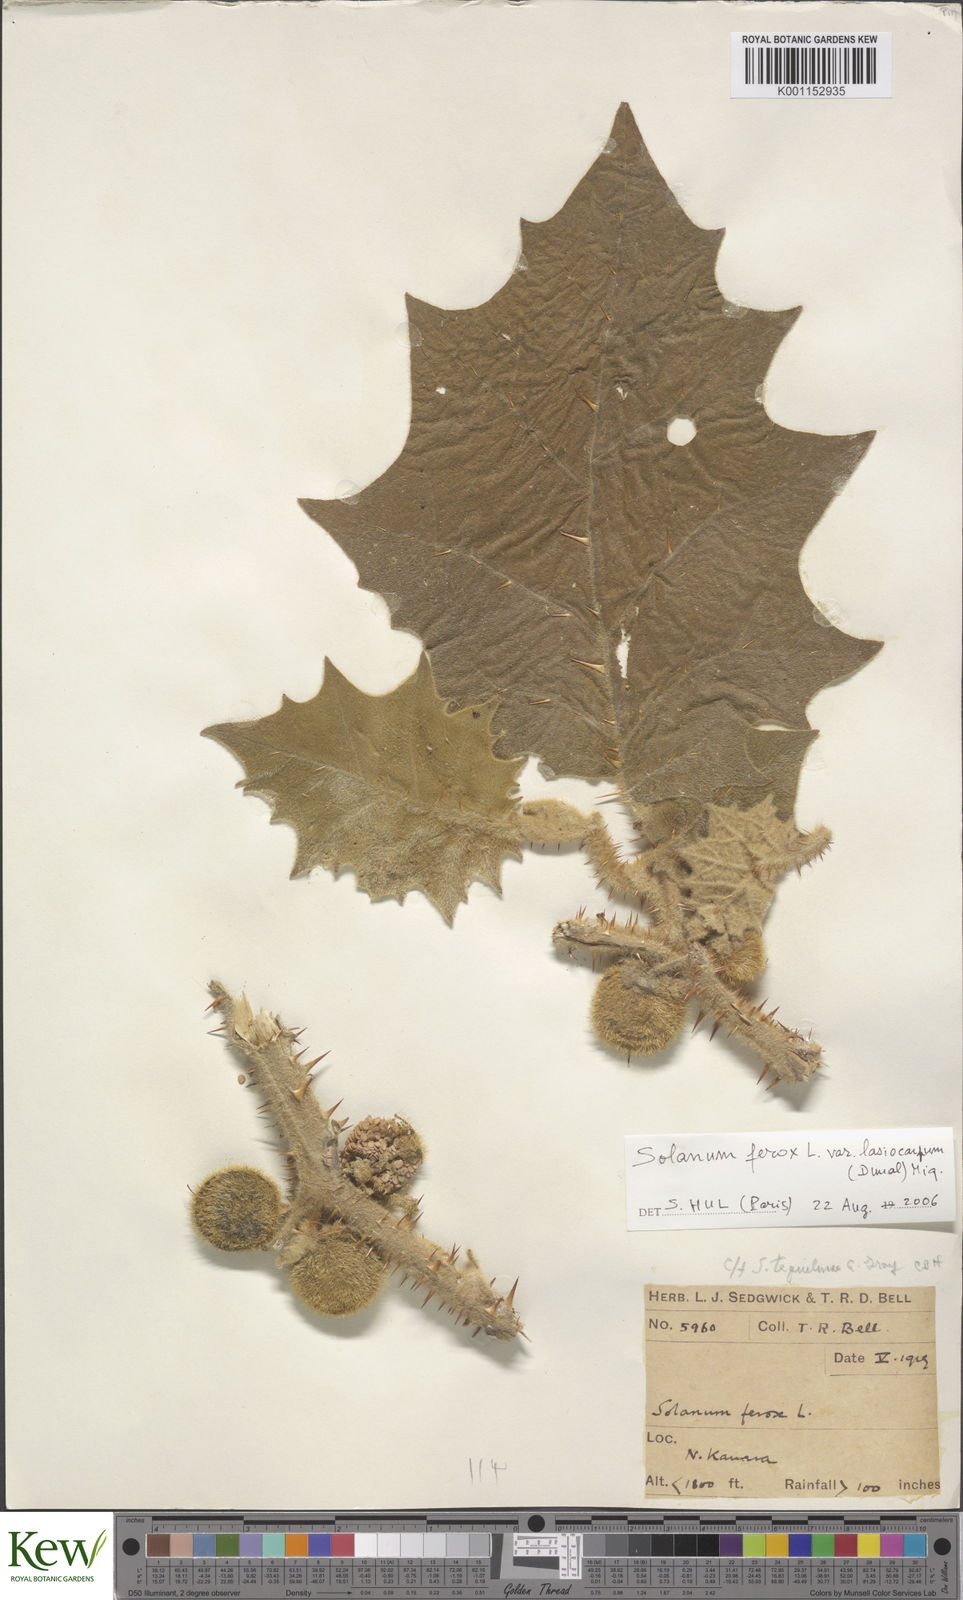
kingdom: Plantae
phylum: Tracheophyta
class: Magnoliopsida
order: Solanales
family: Solanaceae
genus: Solanum
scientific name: Solanum
